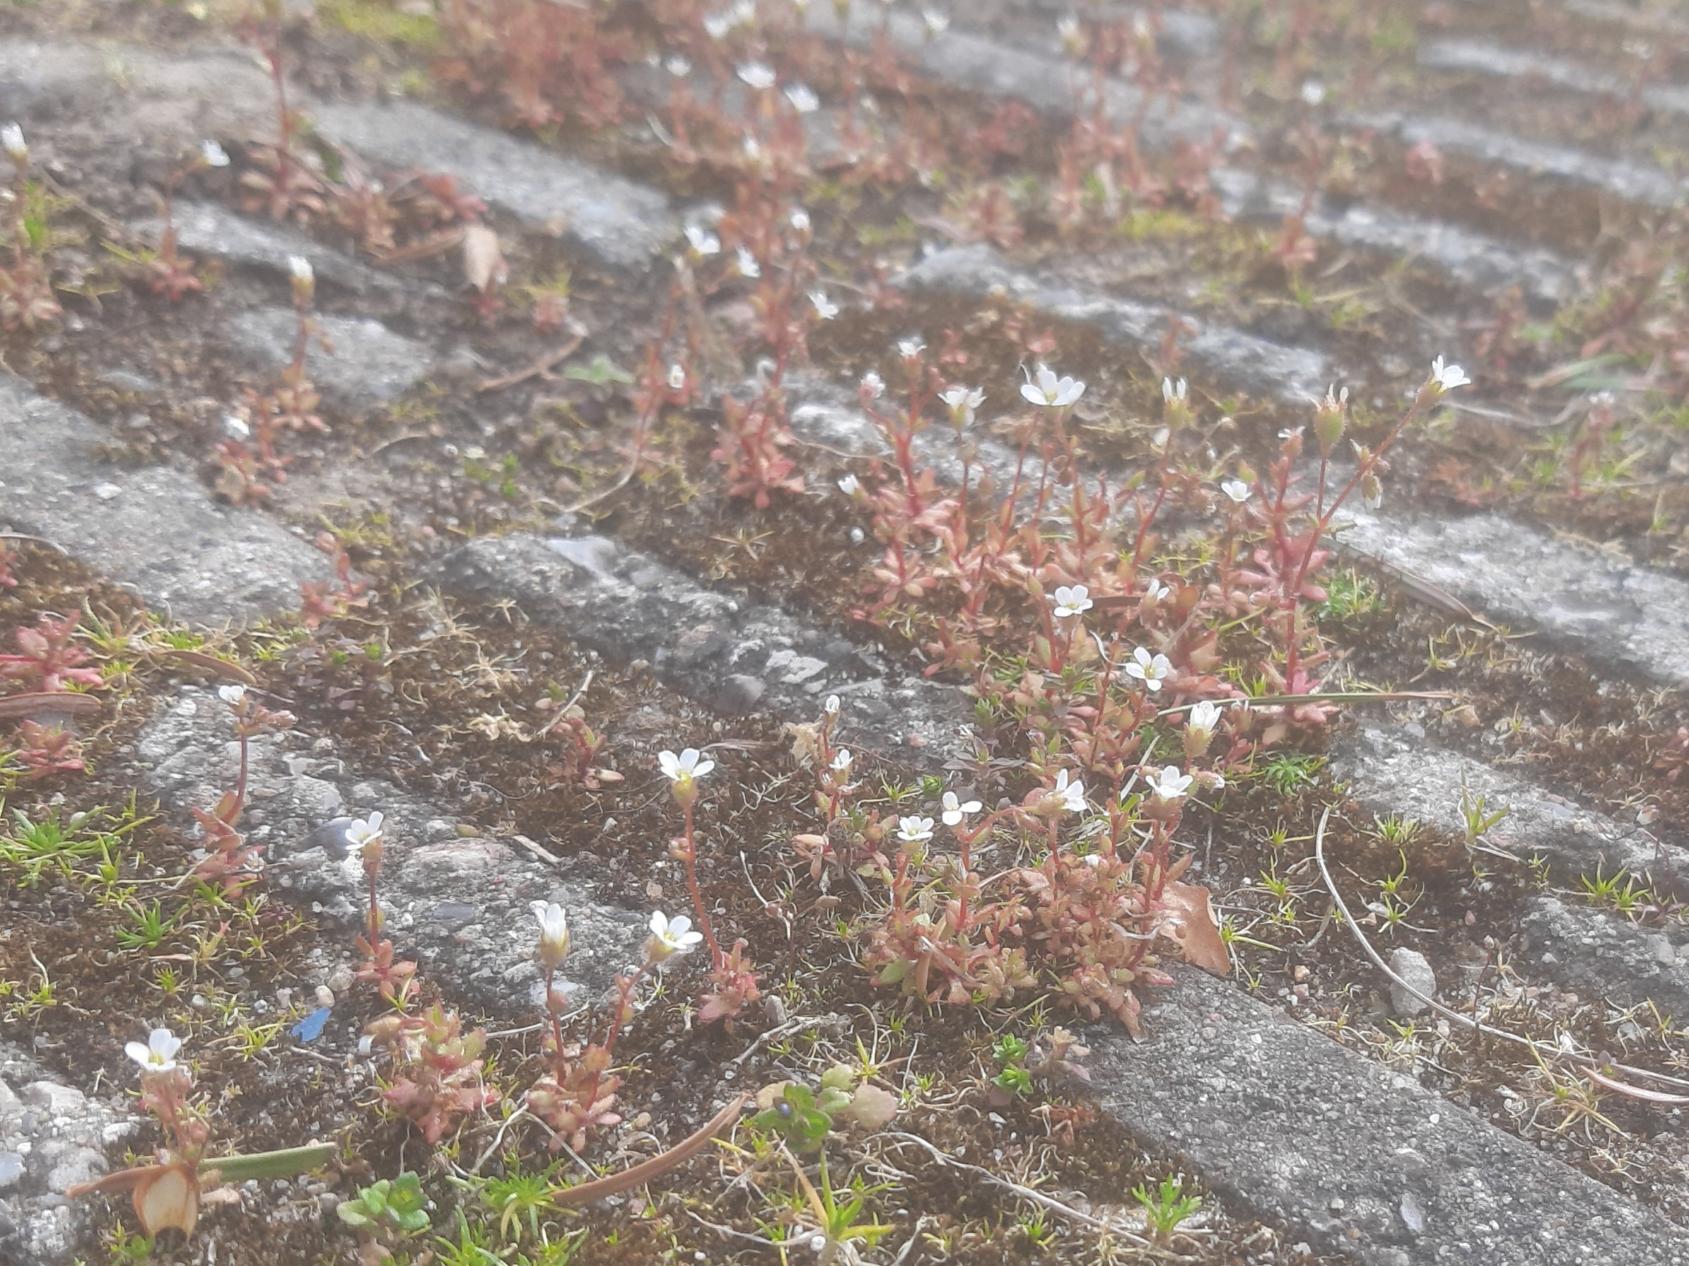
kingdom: Plantae
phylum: Tracheophyta
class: Magnoliopsida
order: Saxifragales
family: Saxifragaceae
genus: Saxifraga
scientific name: Saxifraga tridactylites
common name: Trekløft-stenbræk
